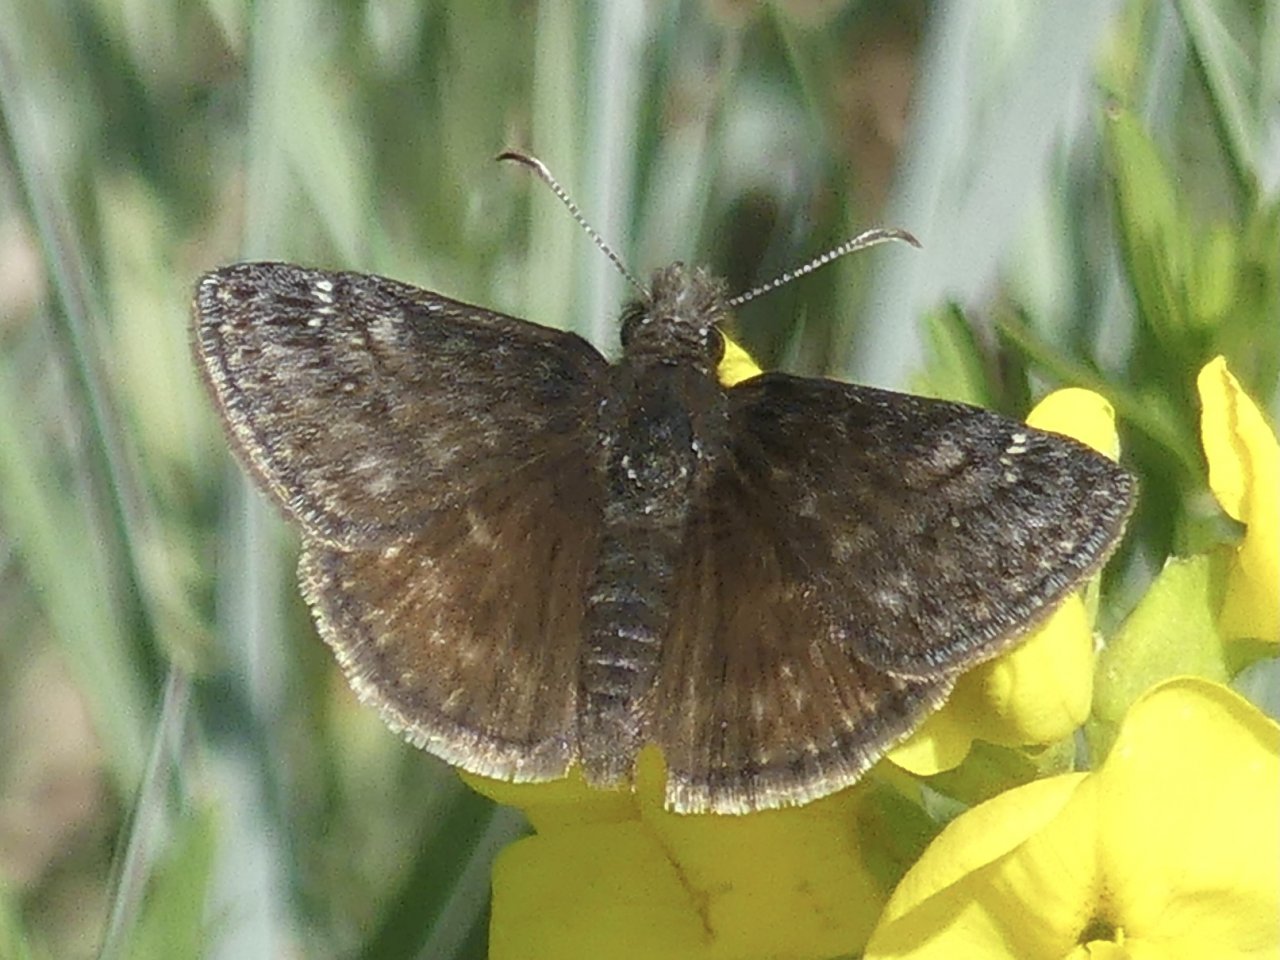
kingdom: Animalia
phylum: Arthropoda
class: Insecta
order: Lepidoptera
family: Hesperiidae
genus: Gesta
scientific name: Gesta
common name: Persius Duskywing
